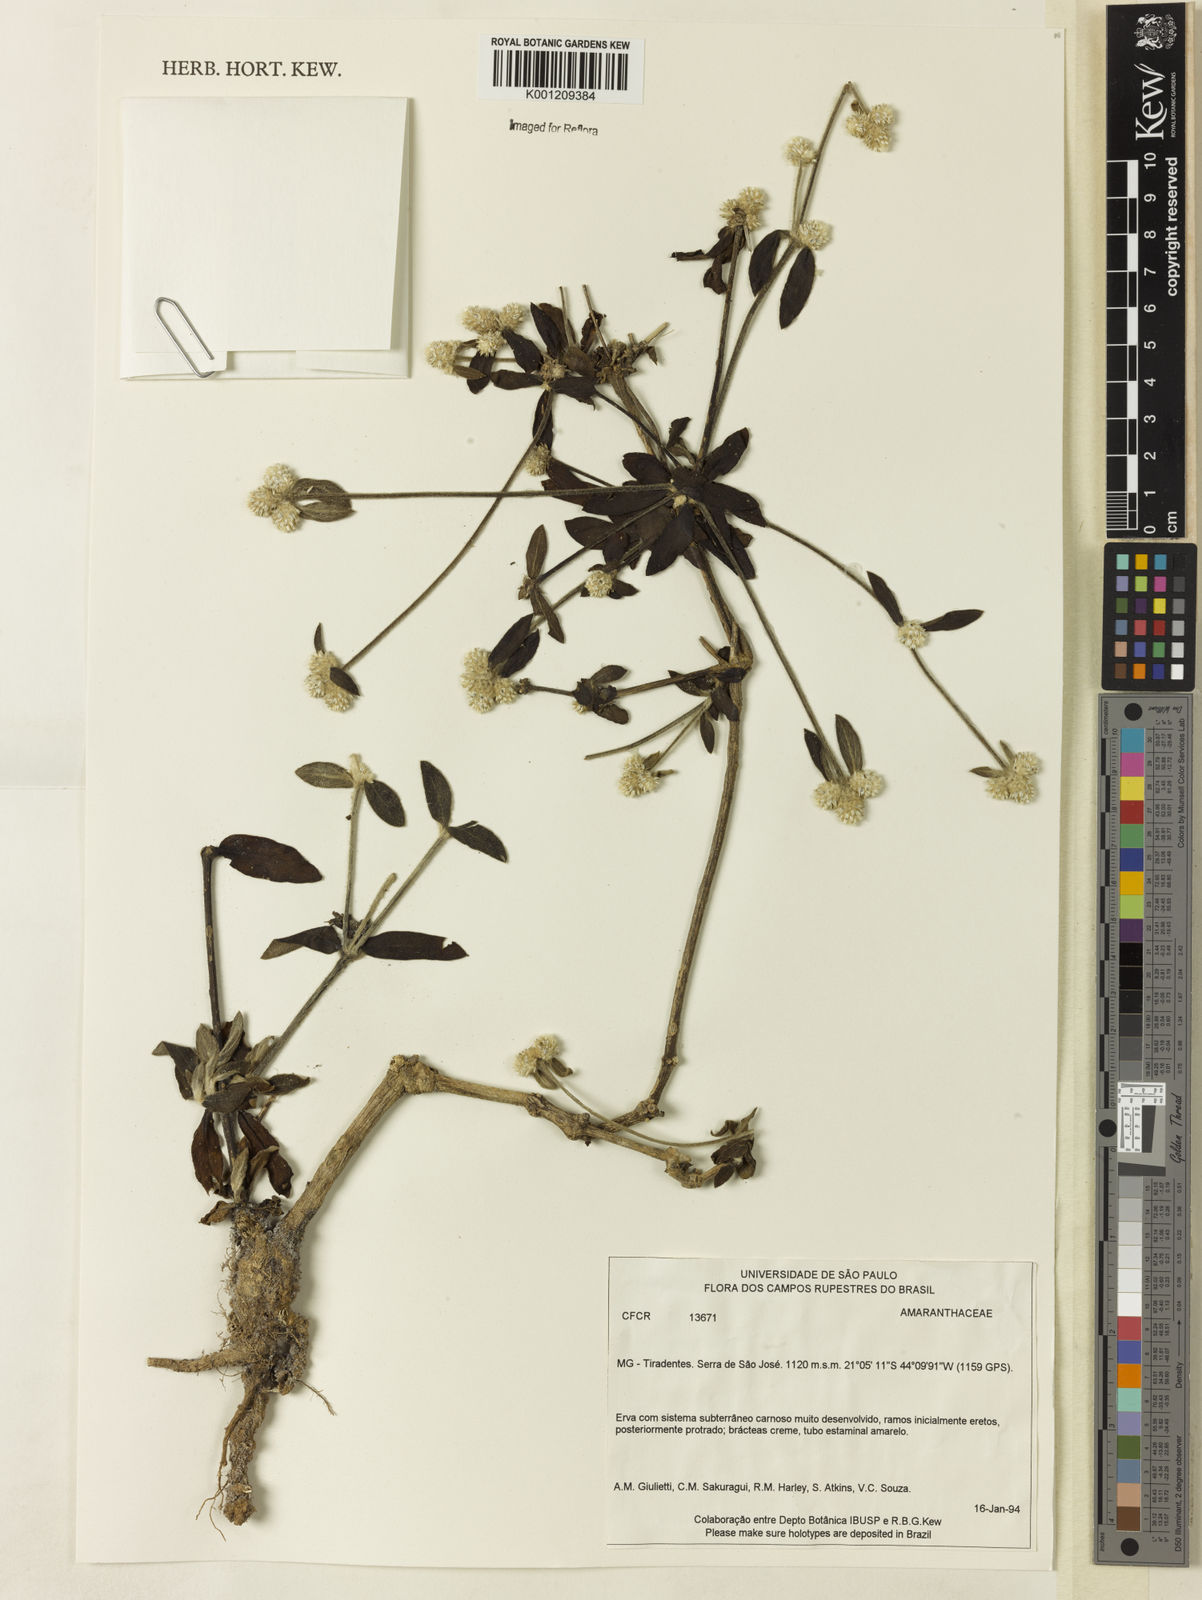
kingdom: Plantae
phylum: Tracheophyta
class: Magnoliopsida
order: Caryophyllales
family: Amaranthaceae
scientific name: Amaranthaceae
